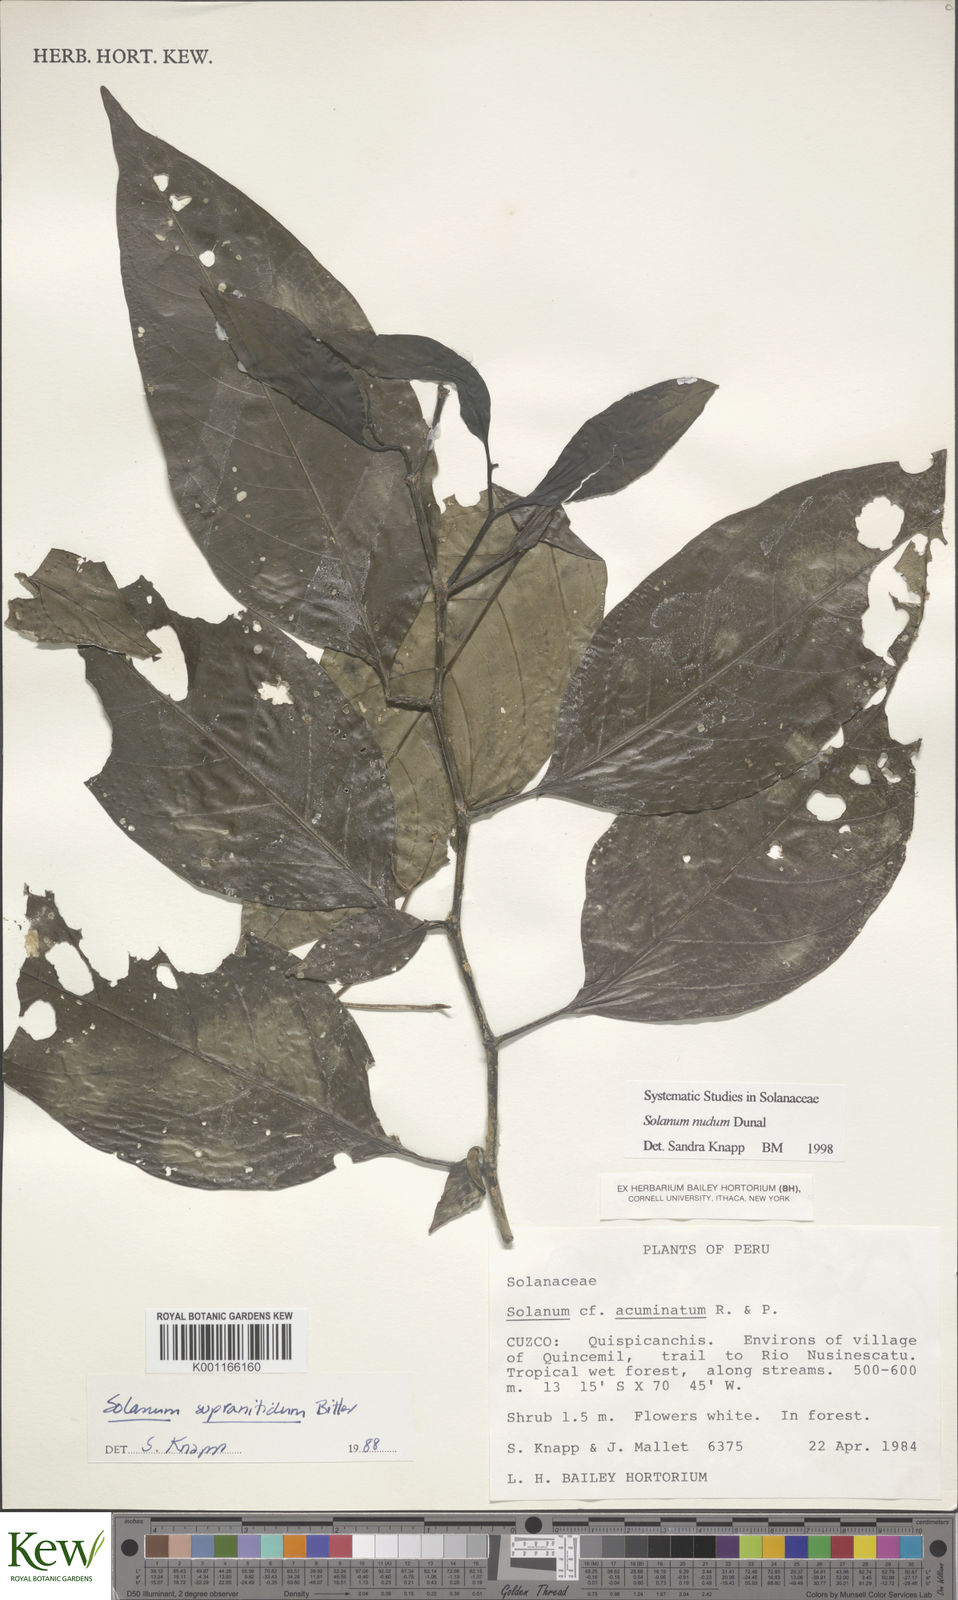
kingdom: Plantae
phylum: Tracheophyta
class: Magnoliopsida
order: Solanales
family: Solanaceae
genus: Solanum
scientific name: Solanum nudum
